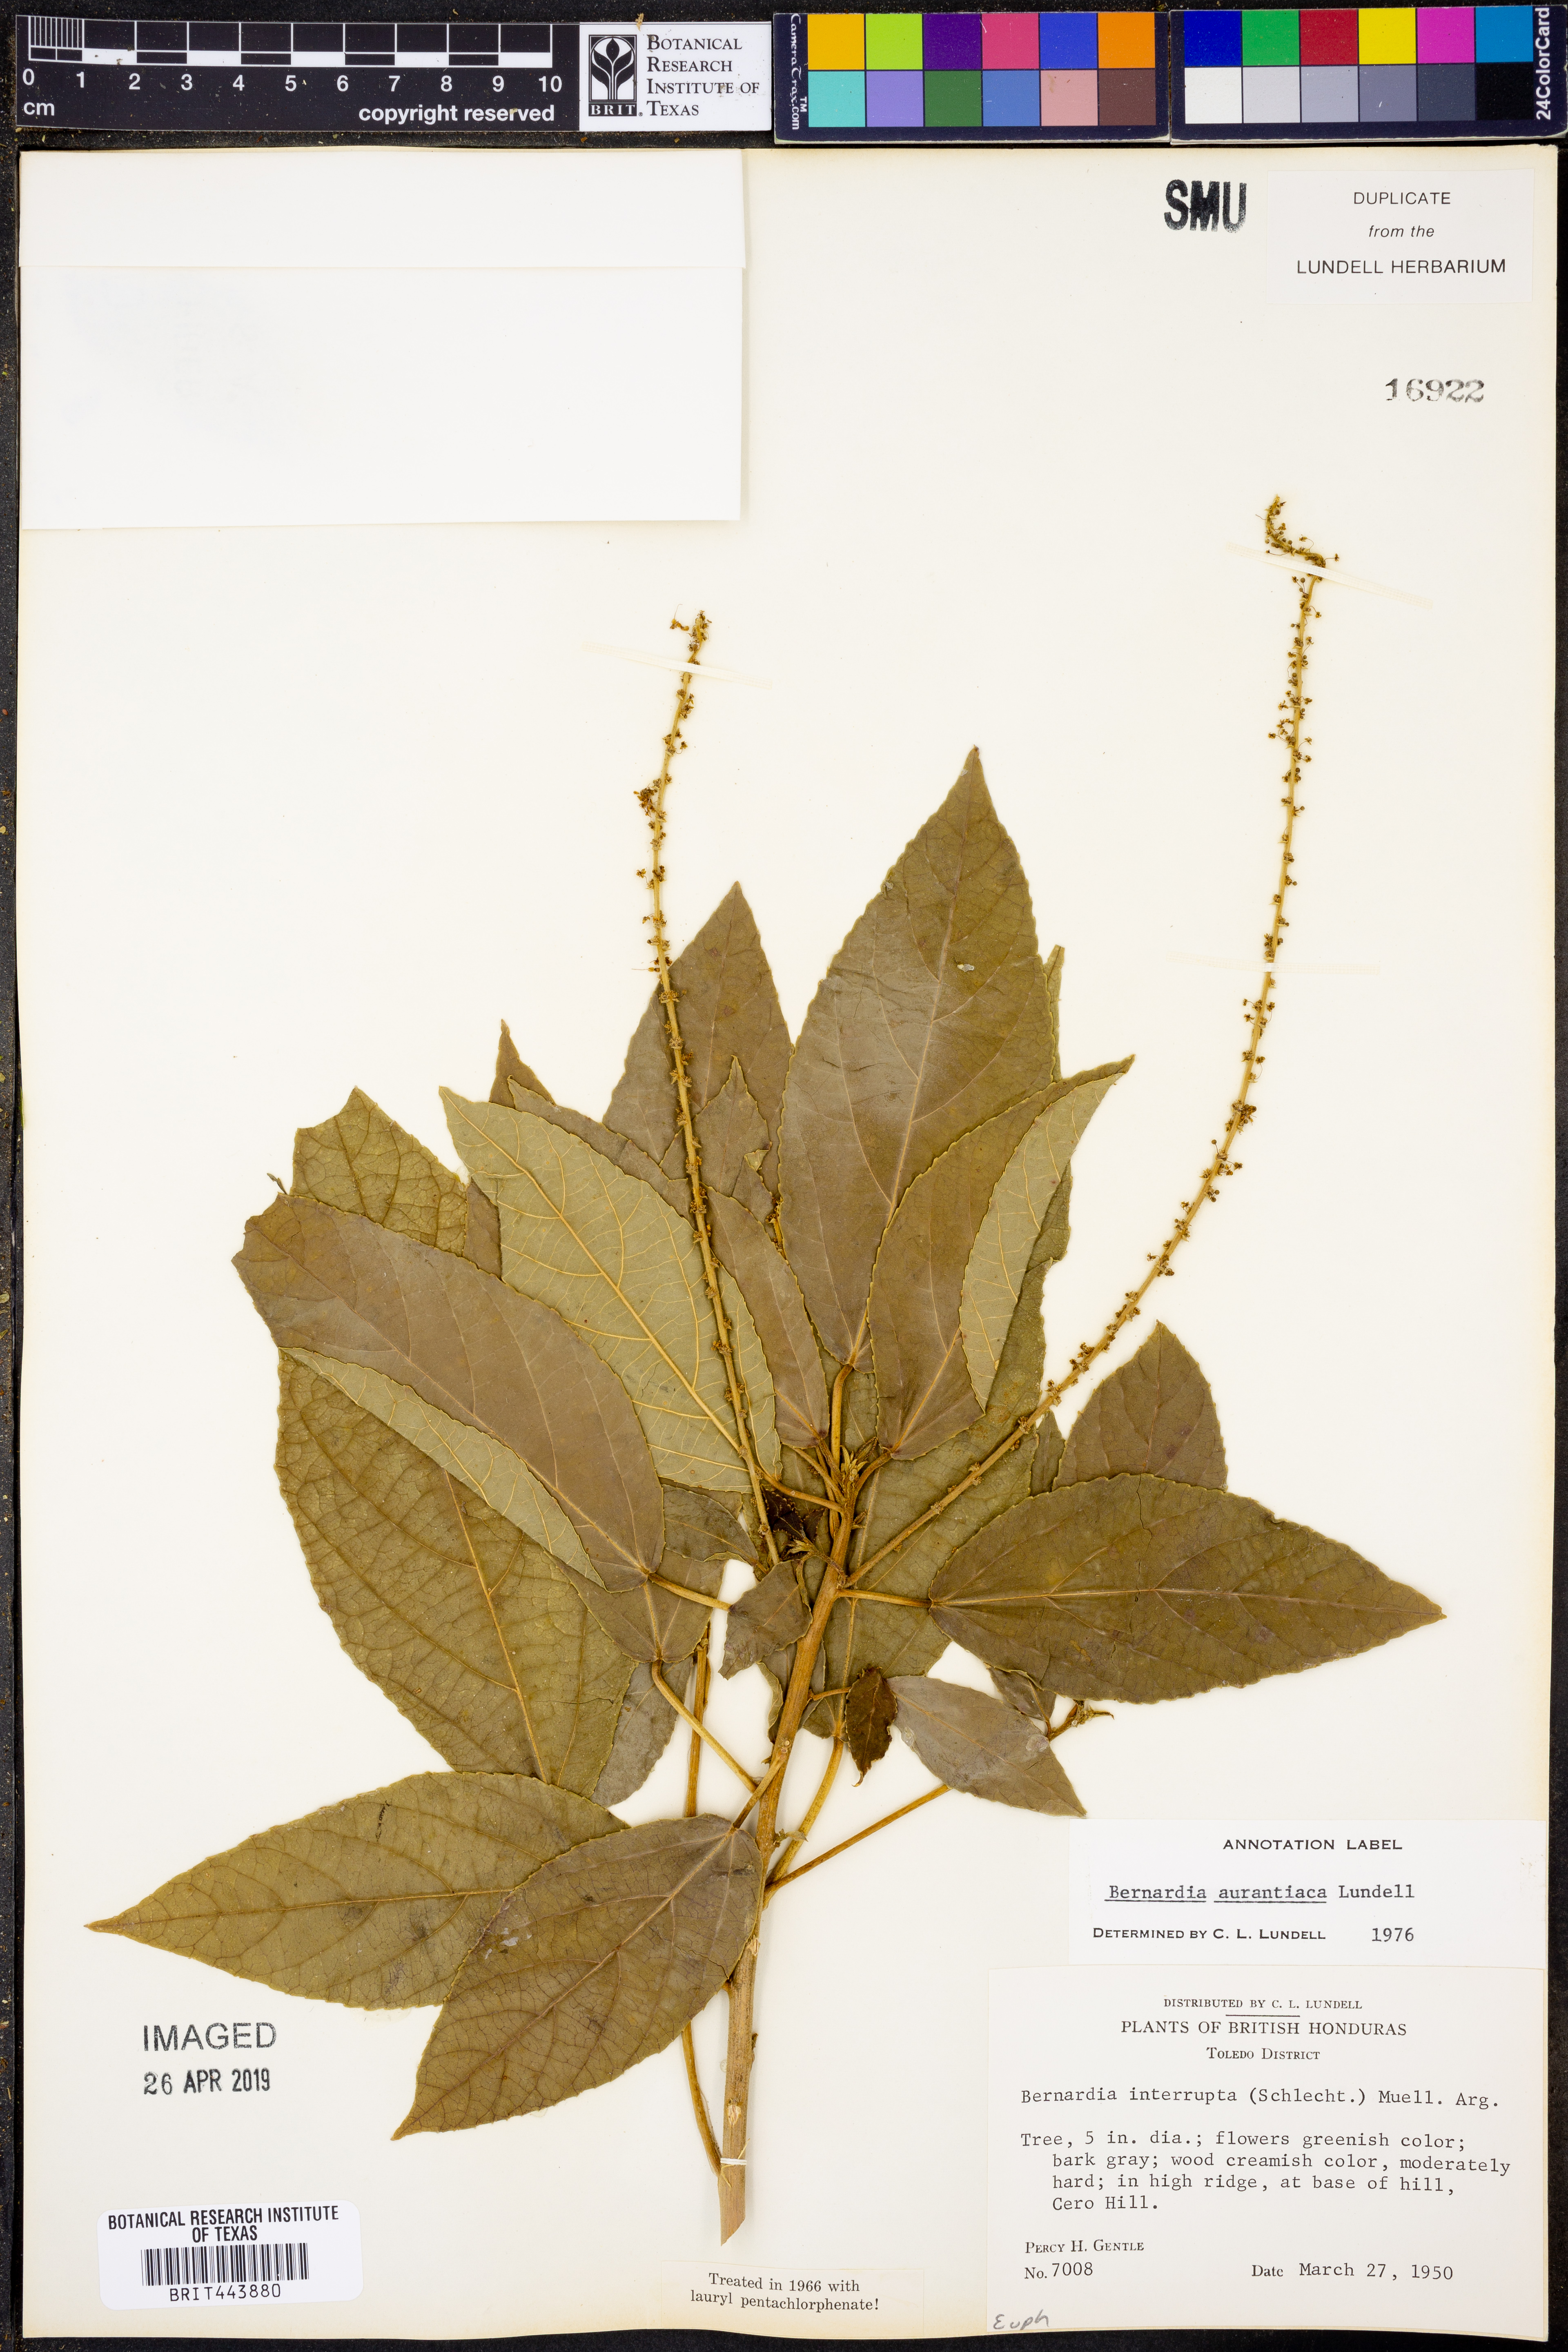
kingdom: Plantae
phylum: Tracheophyta
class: Magnoliopsida
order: Malpighiales
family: Euphorbiaceae
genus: Bernardia
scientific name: Bernardia dodecandra
